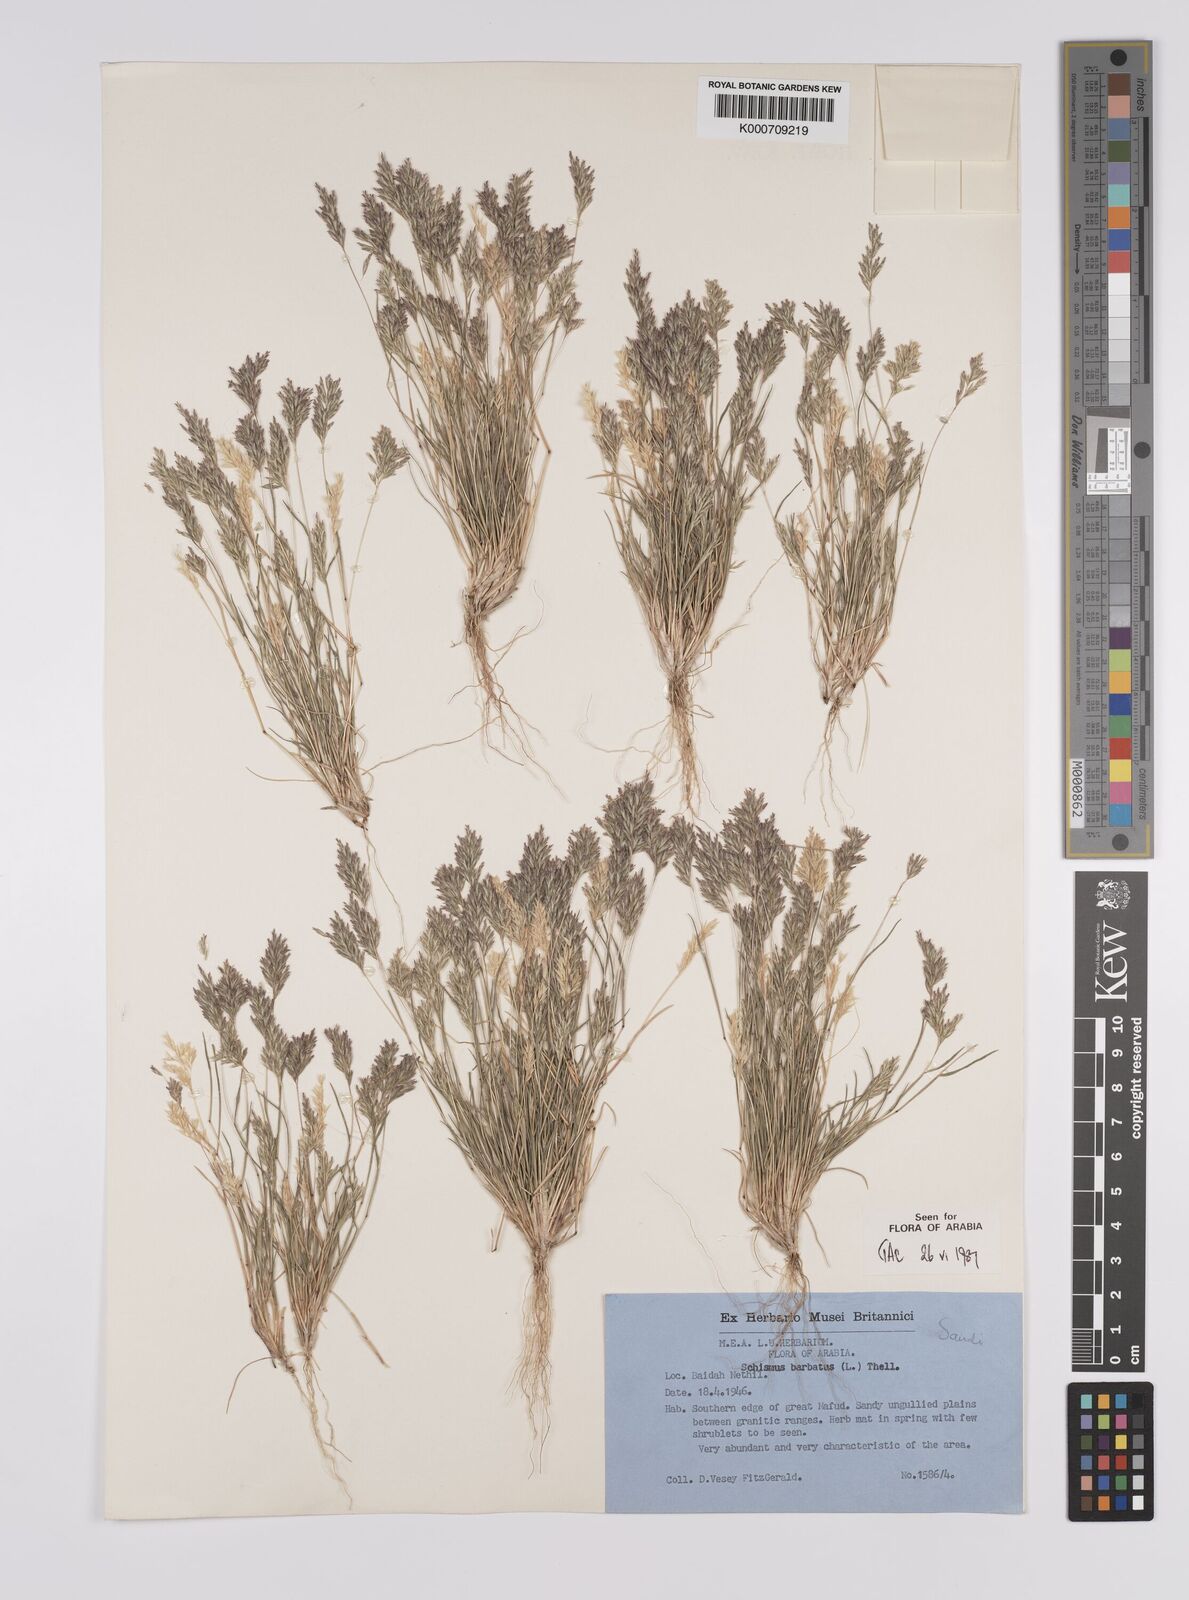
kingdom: Plantae
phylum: Tracheophyta
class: Liliopsida
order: Poales
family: Poaceae
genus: Schismus
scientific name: Schismus barbatus
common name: Kelch-grass
